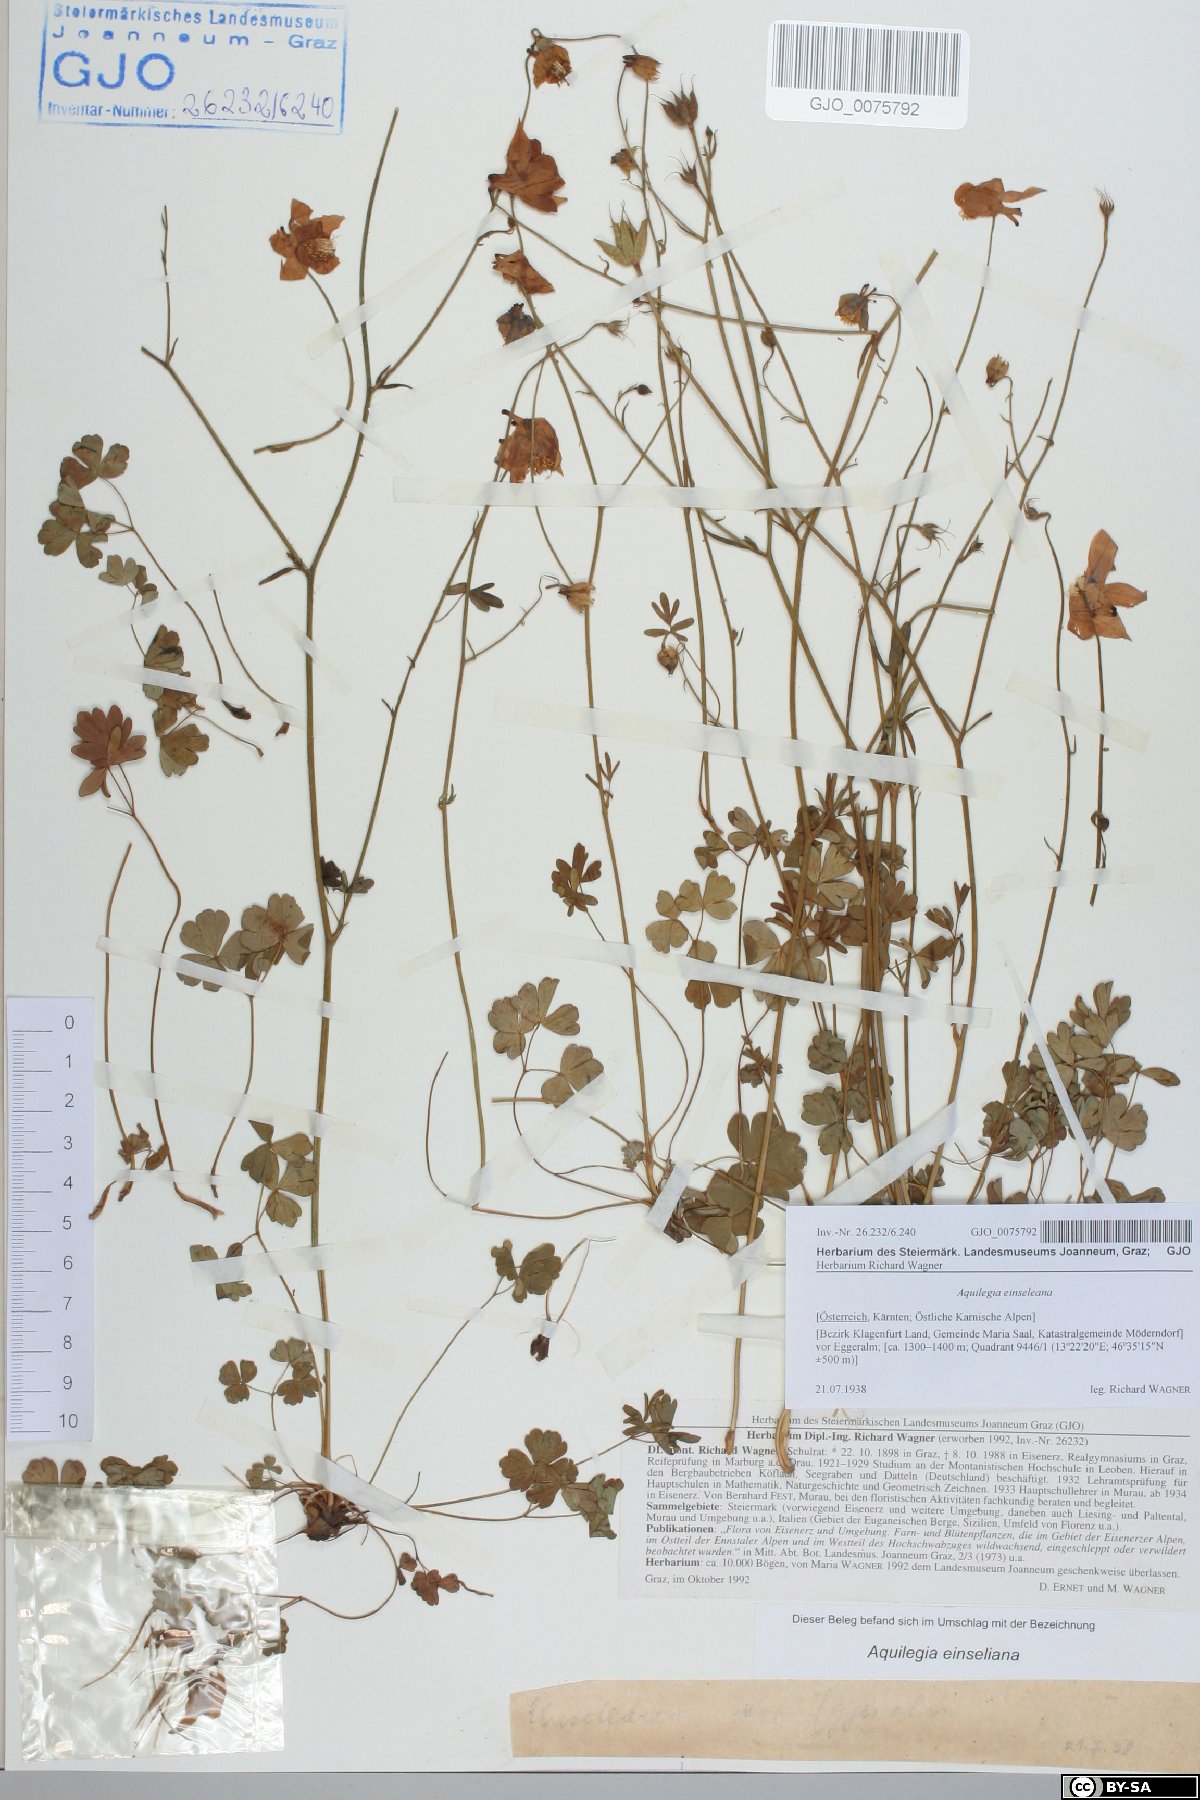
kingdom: Plantae
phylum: Tracheophyta
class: Magnoliopsida
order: Ranunculales
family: Ranunculaceae
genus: Aquilegia
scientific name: Aquilegia einseleana
